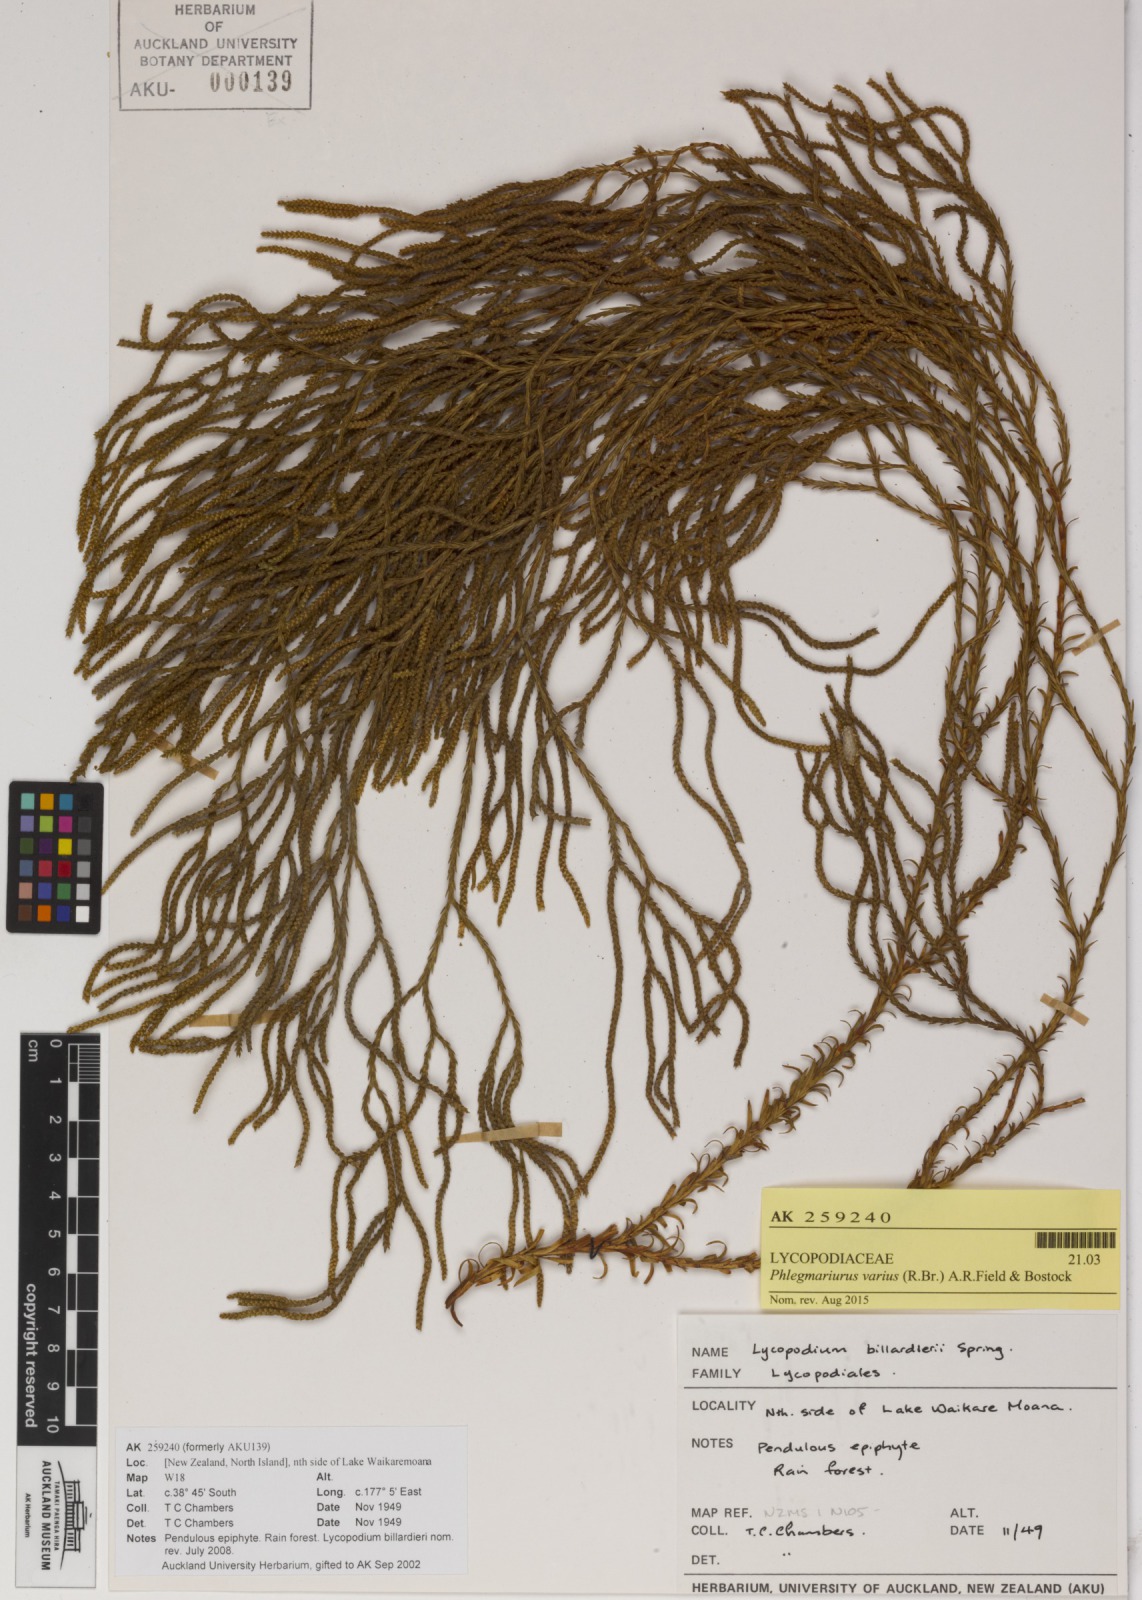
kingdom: Plantae
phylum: Tracheophyta
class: Lycopodiopsida
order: Lycopodiales
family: Lycopodiaceae
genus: Phlegmariurus
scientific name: Phlegmariurus billardierei
